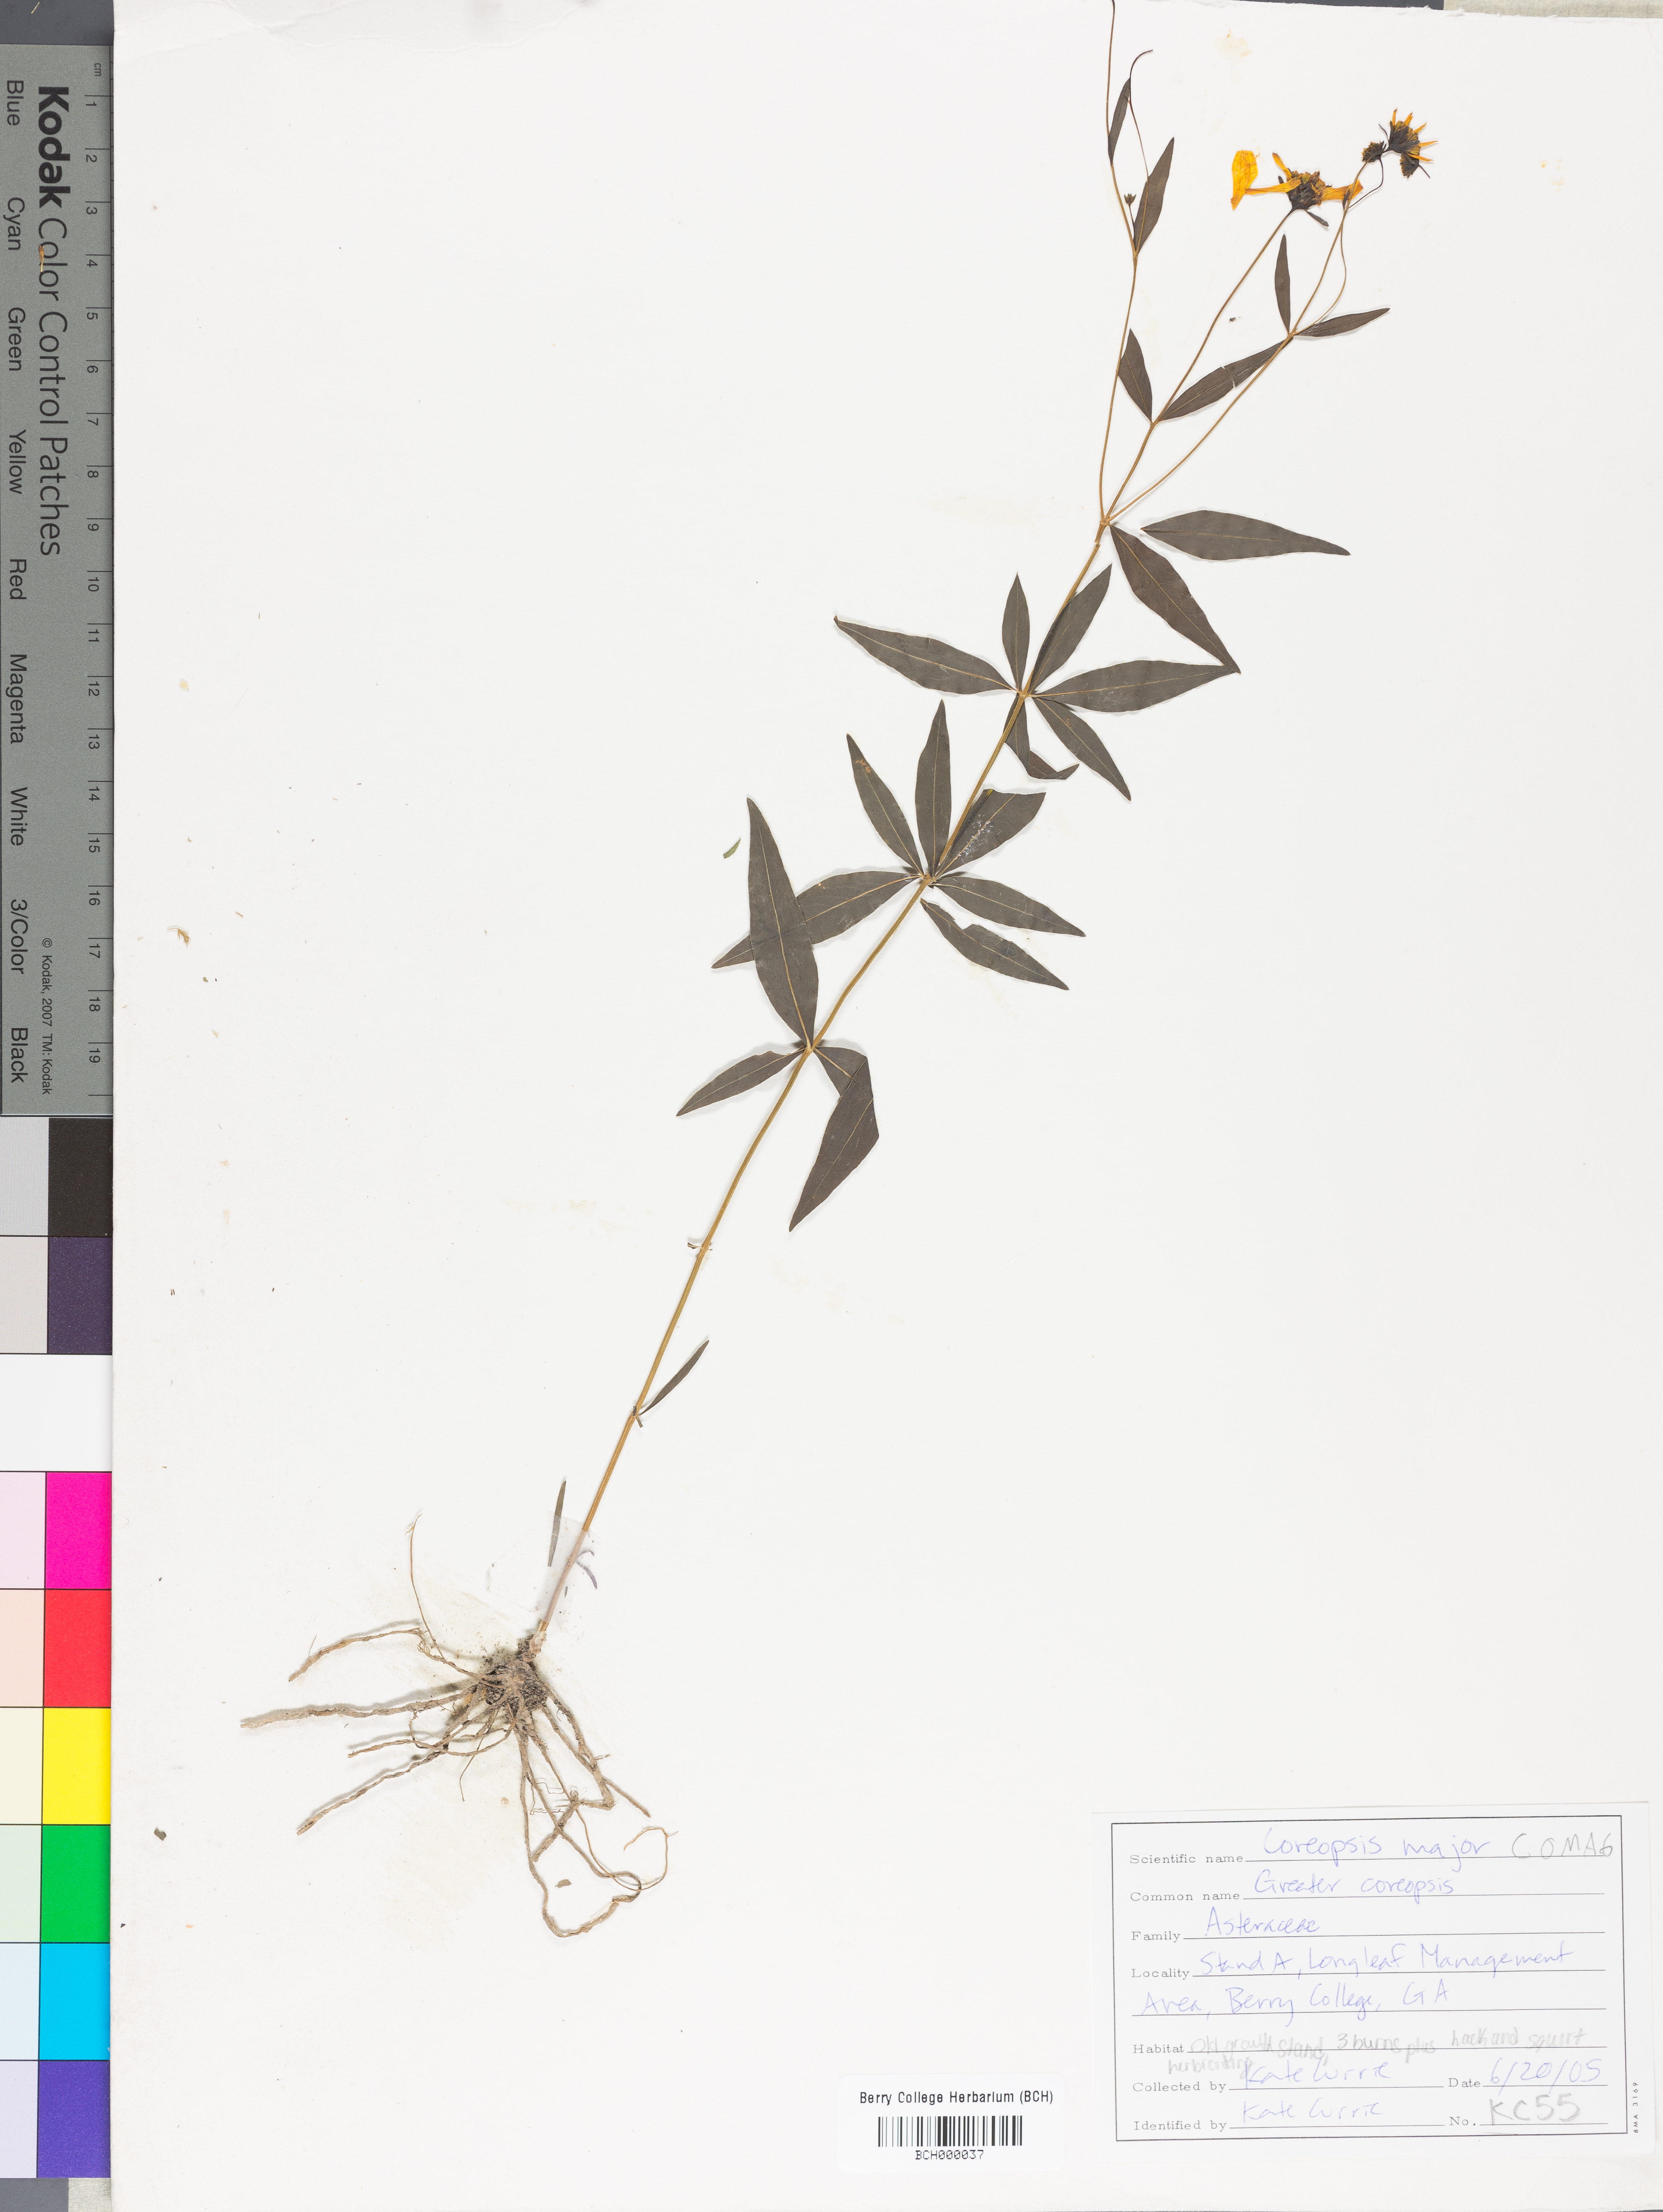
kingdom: Plantae
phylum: Tracheophyta
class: Magnoliopsida
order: Asterales
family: Asteraceae
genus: Coreopsis
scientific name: Coreopsis major
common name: Forest tickseed
